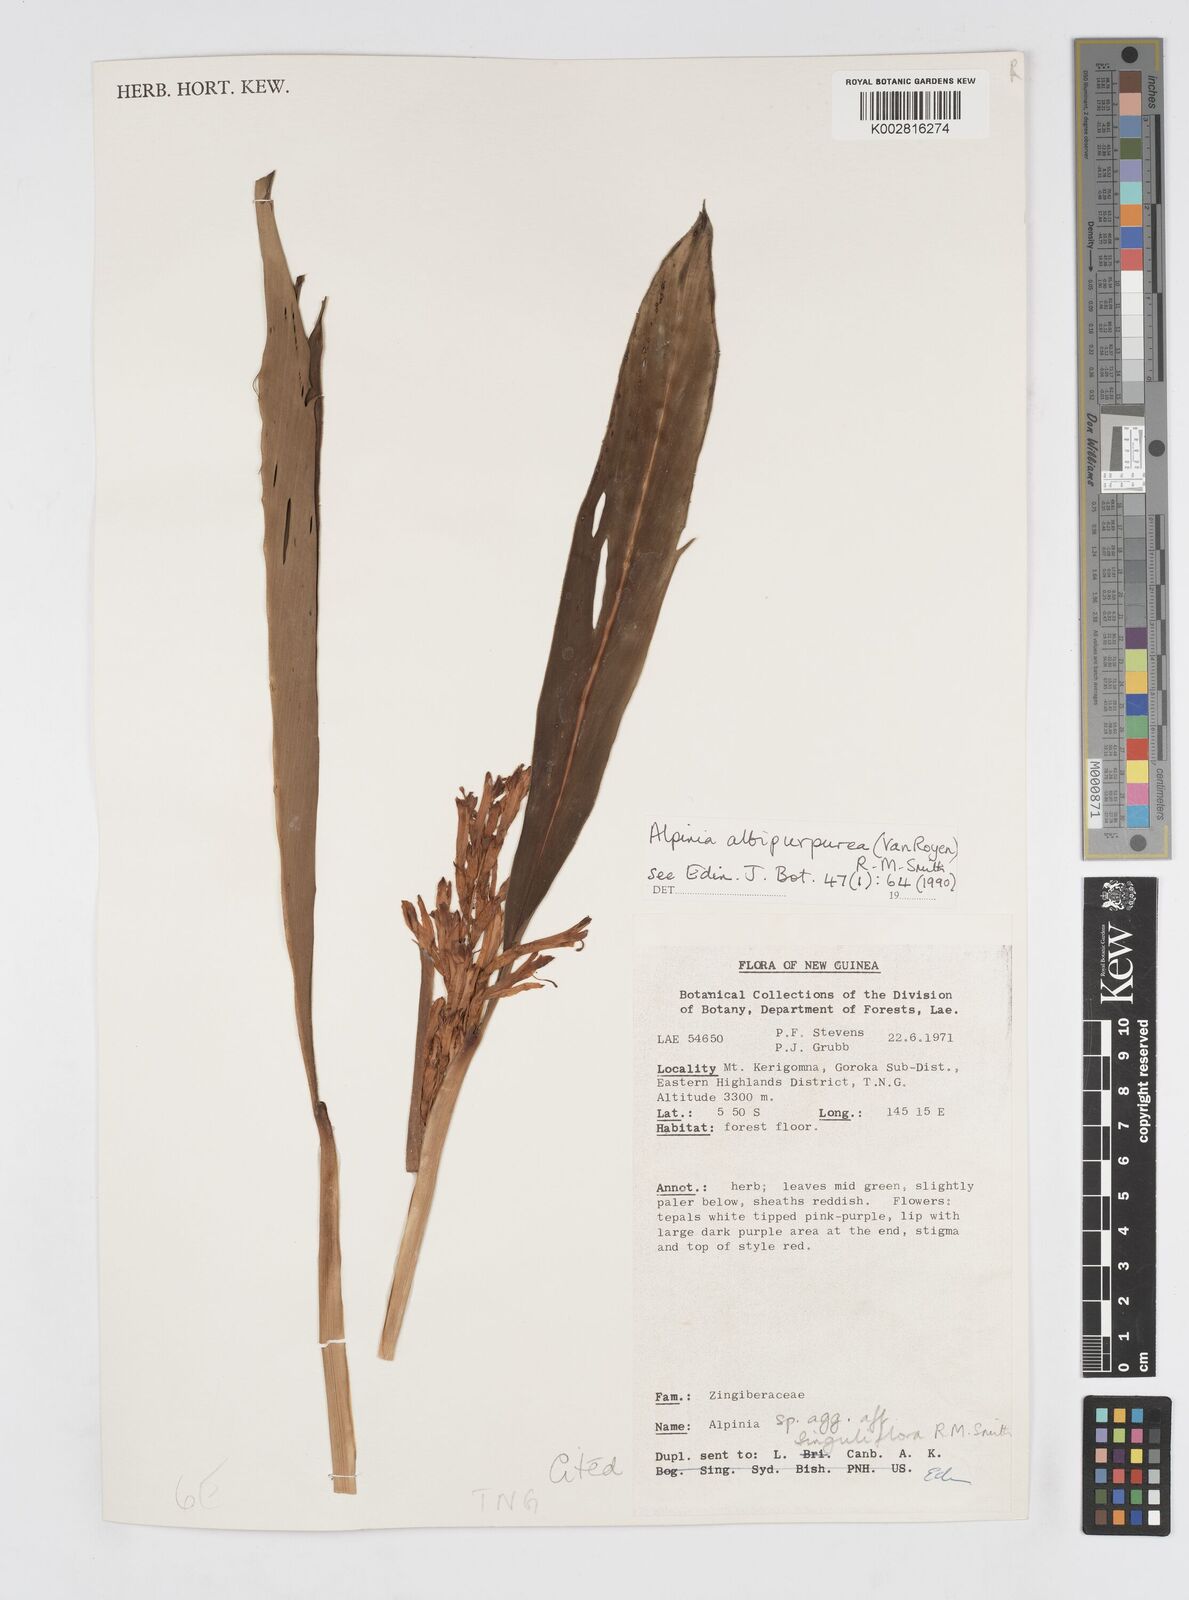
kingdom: Plantae
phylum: Tracheophyta
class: Liliopsida
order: Zingiberales
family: Zingiberaceae
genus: Alpinia
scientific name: Alpinia albipurpurea
